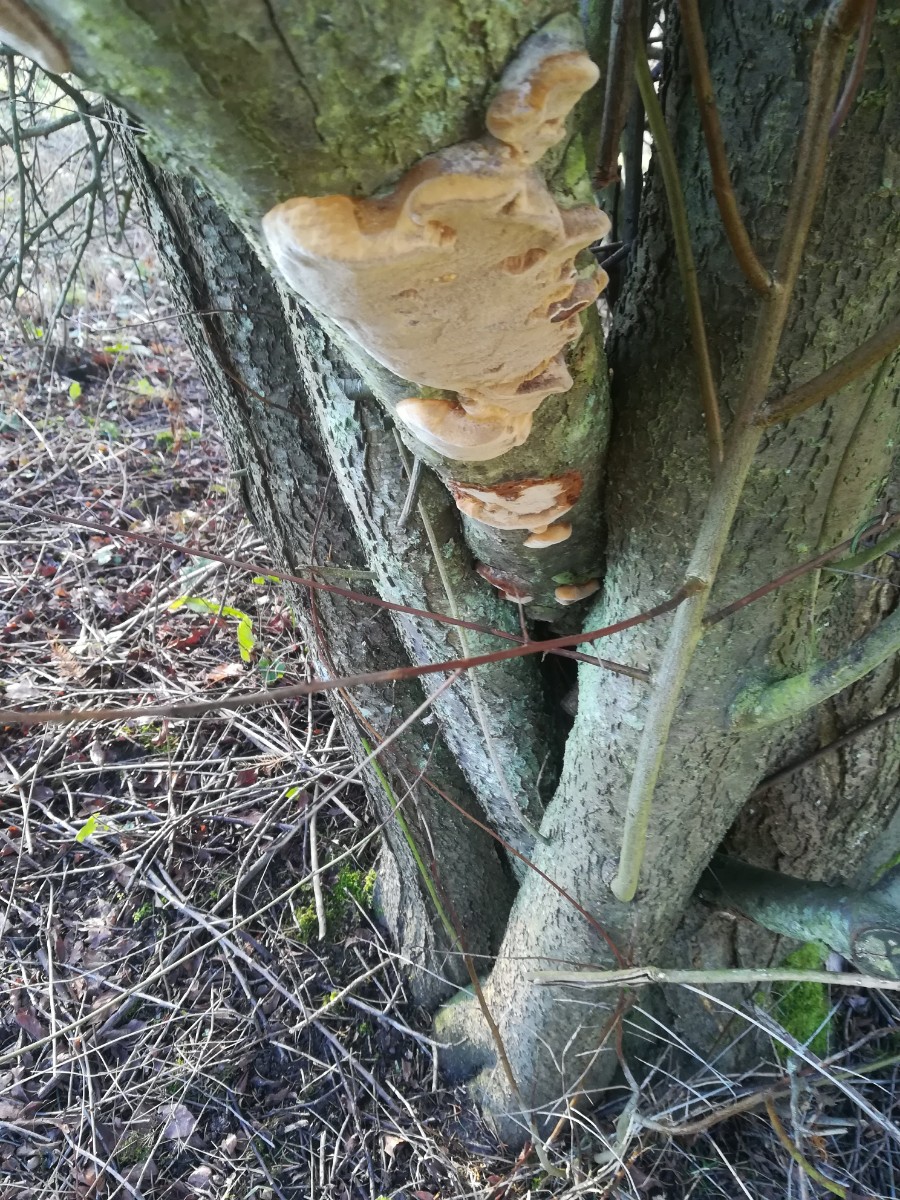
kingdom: Fungi
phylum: Basidiomycota
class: Agaricomycetes
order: Hymenochaetales
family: Hymenochaetaceae
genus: Phellinus
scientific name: Phellinus pomaceus
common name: blomme-ildporesvamp
